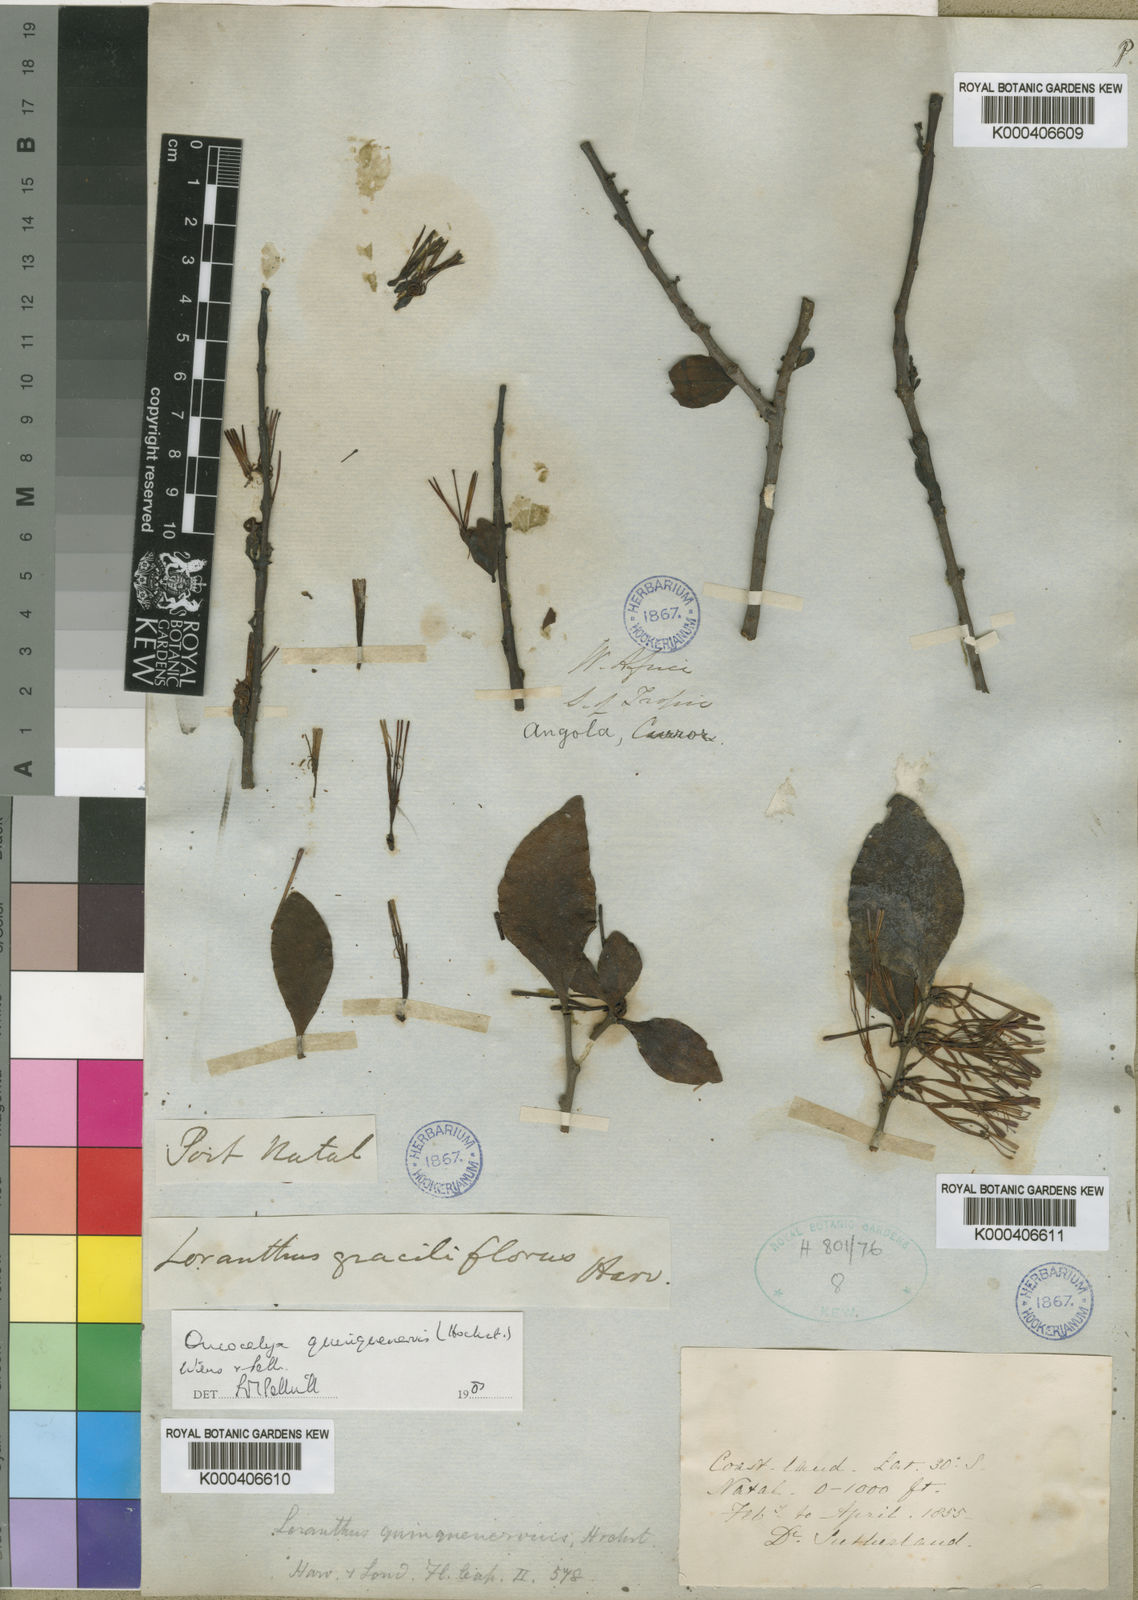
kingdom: Plantae
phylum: Tracheophyta
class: Magnoliopsida
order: Santalales
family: Loranthaceae
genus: Oncocalyx
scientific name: Oncocalyx
